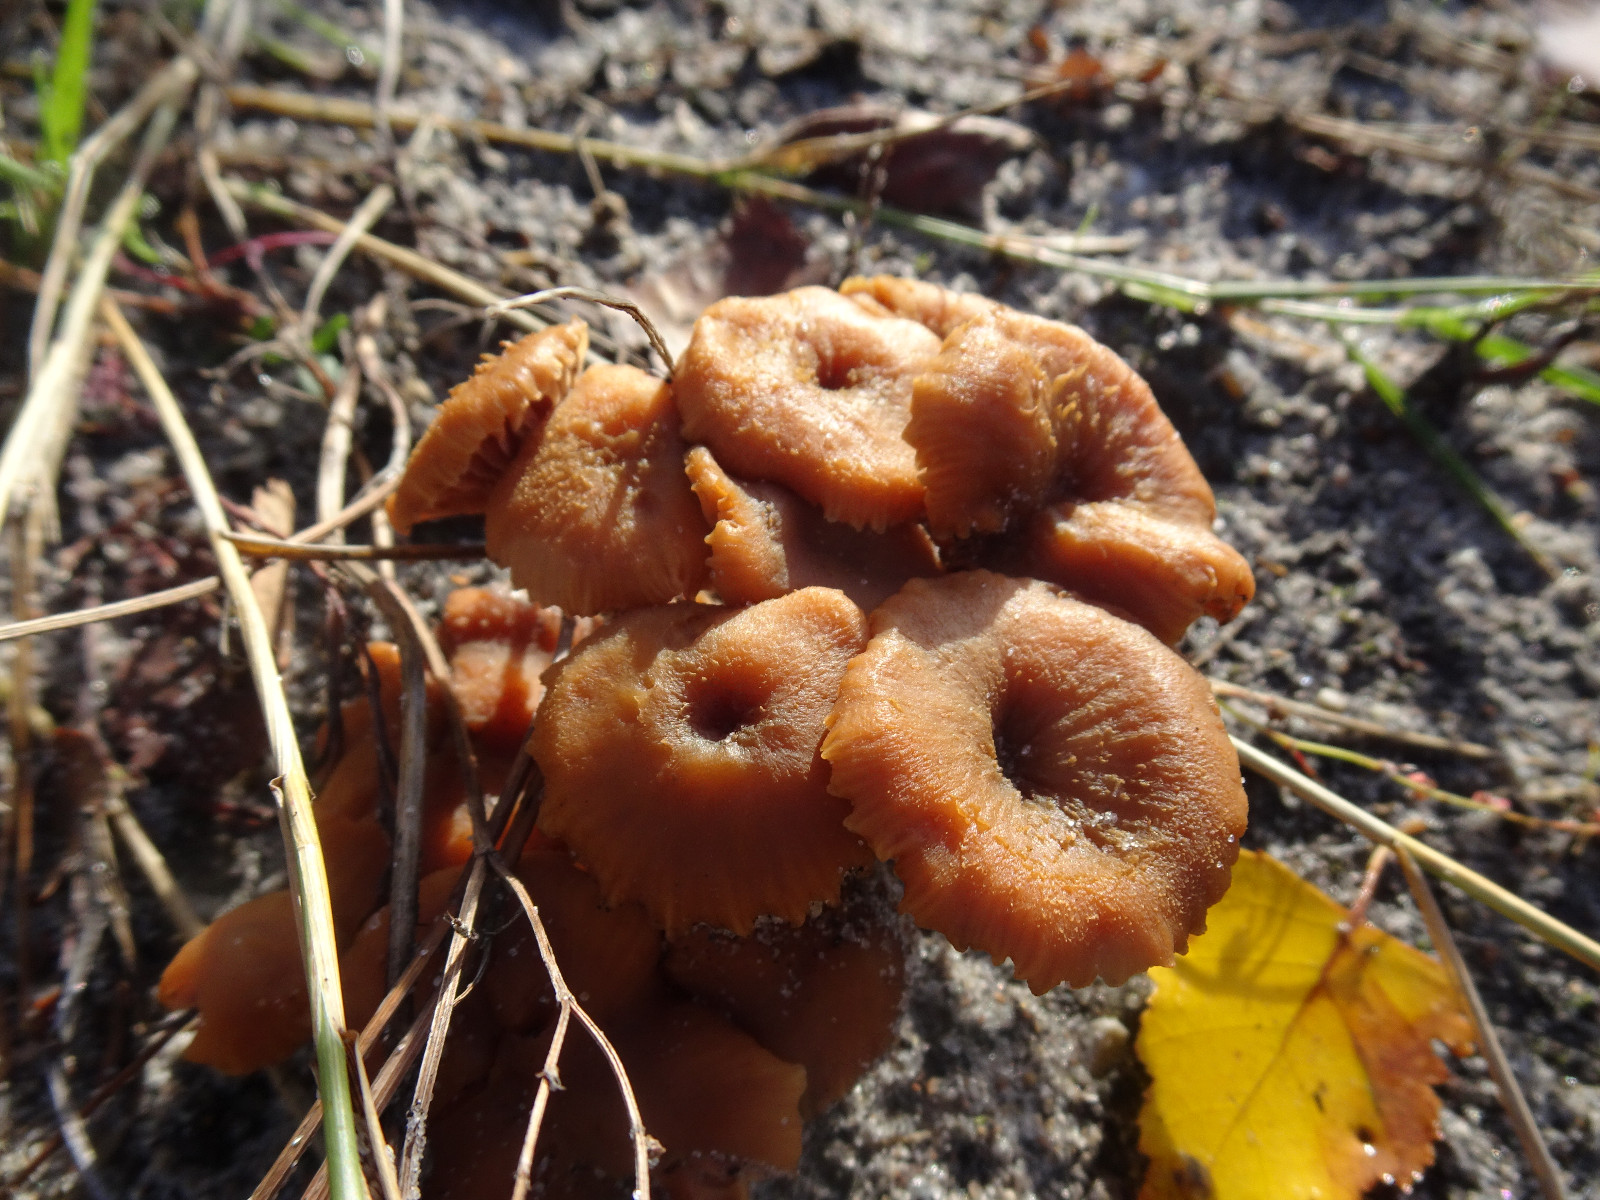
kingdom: Fungi
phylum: Basidiomycota
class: Agaricomycetes
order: Agaricales
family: Hydnangiaceae
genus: Laccaria
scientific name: Laccaria
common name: ametysthat
